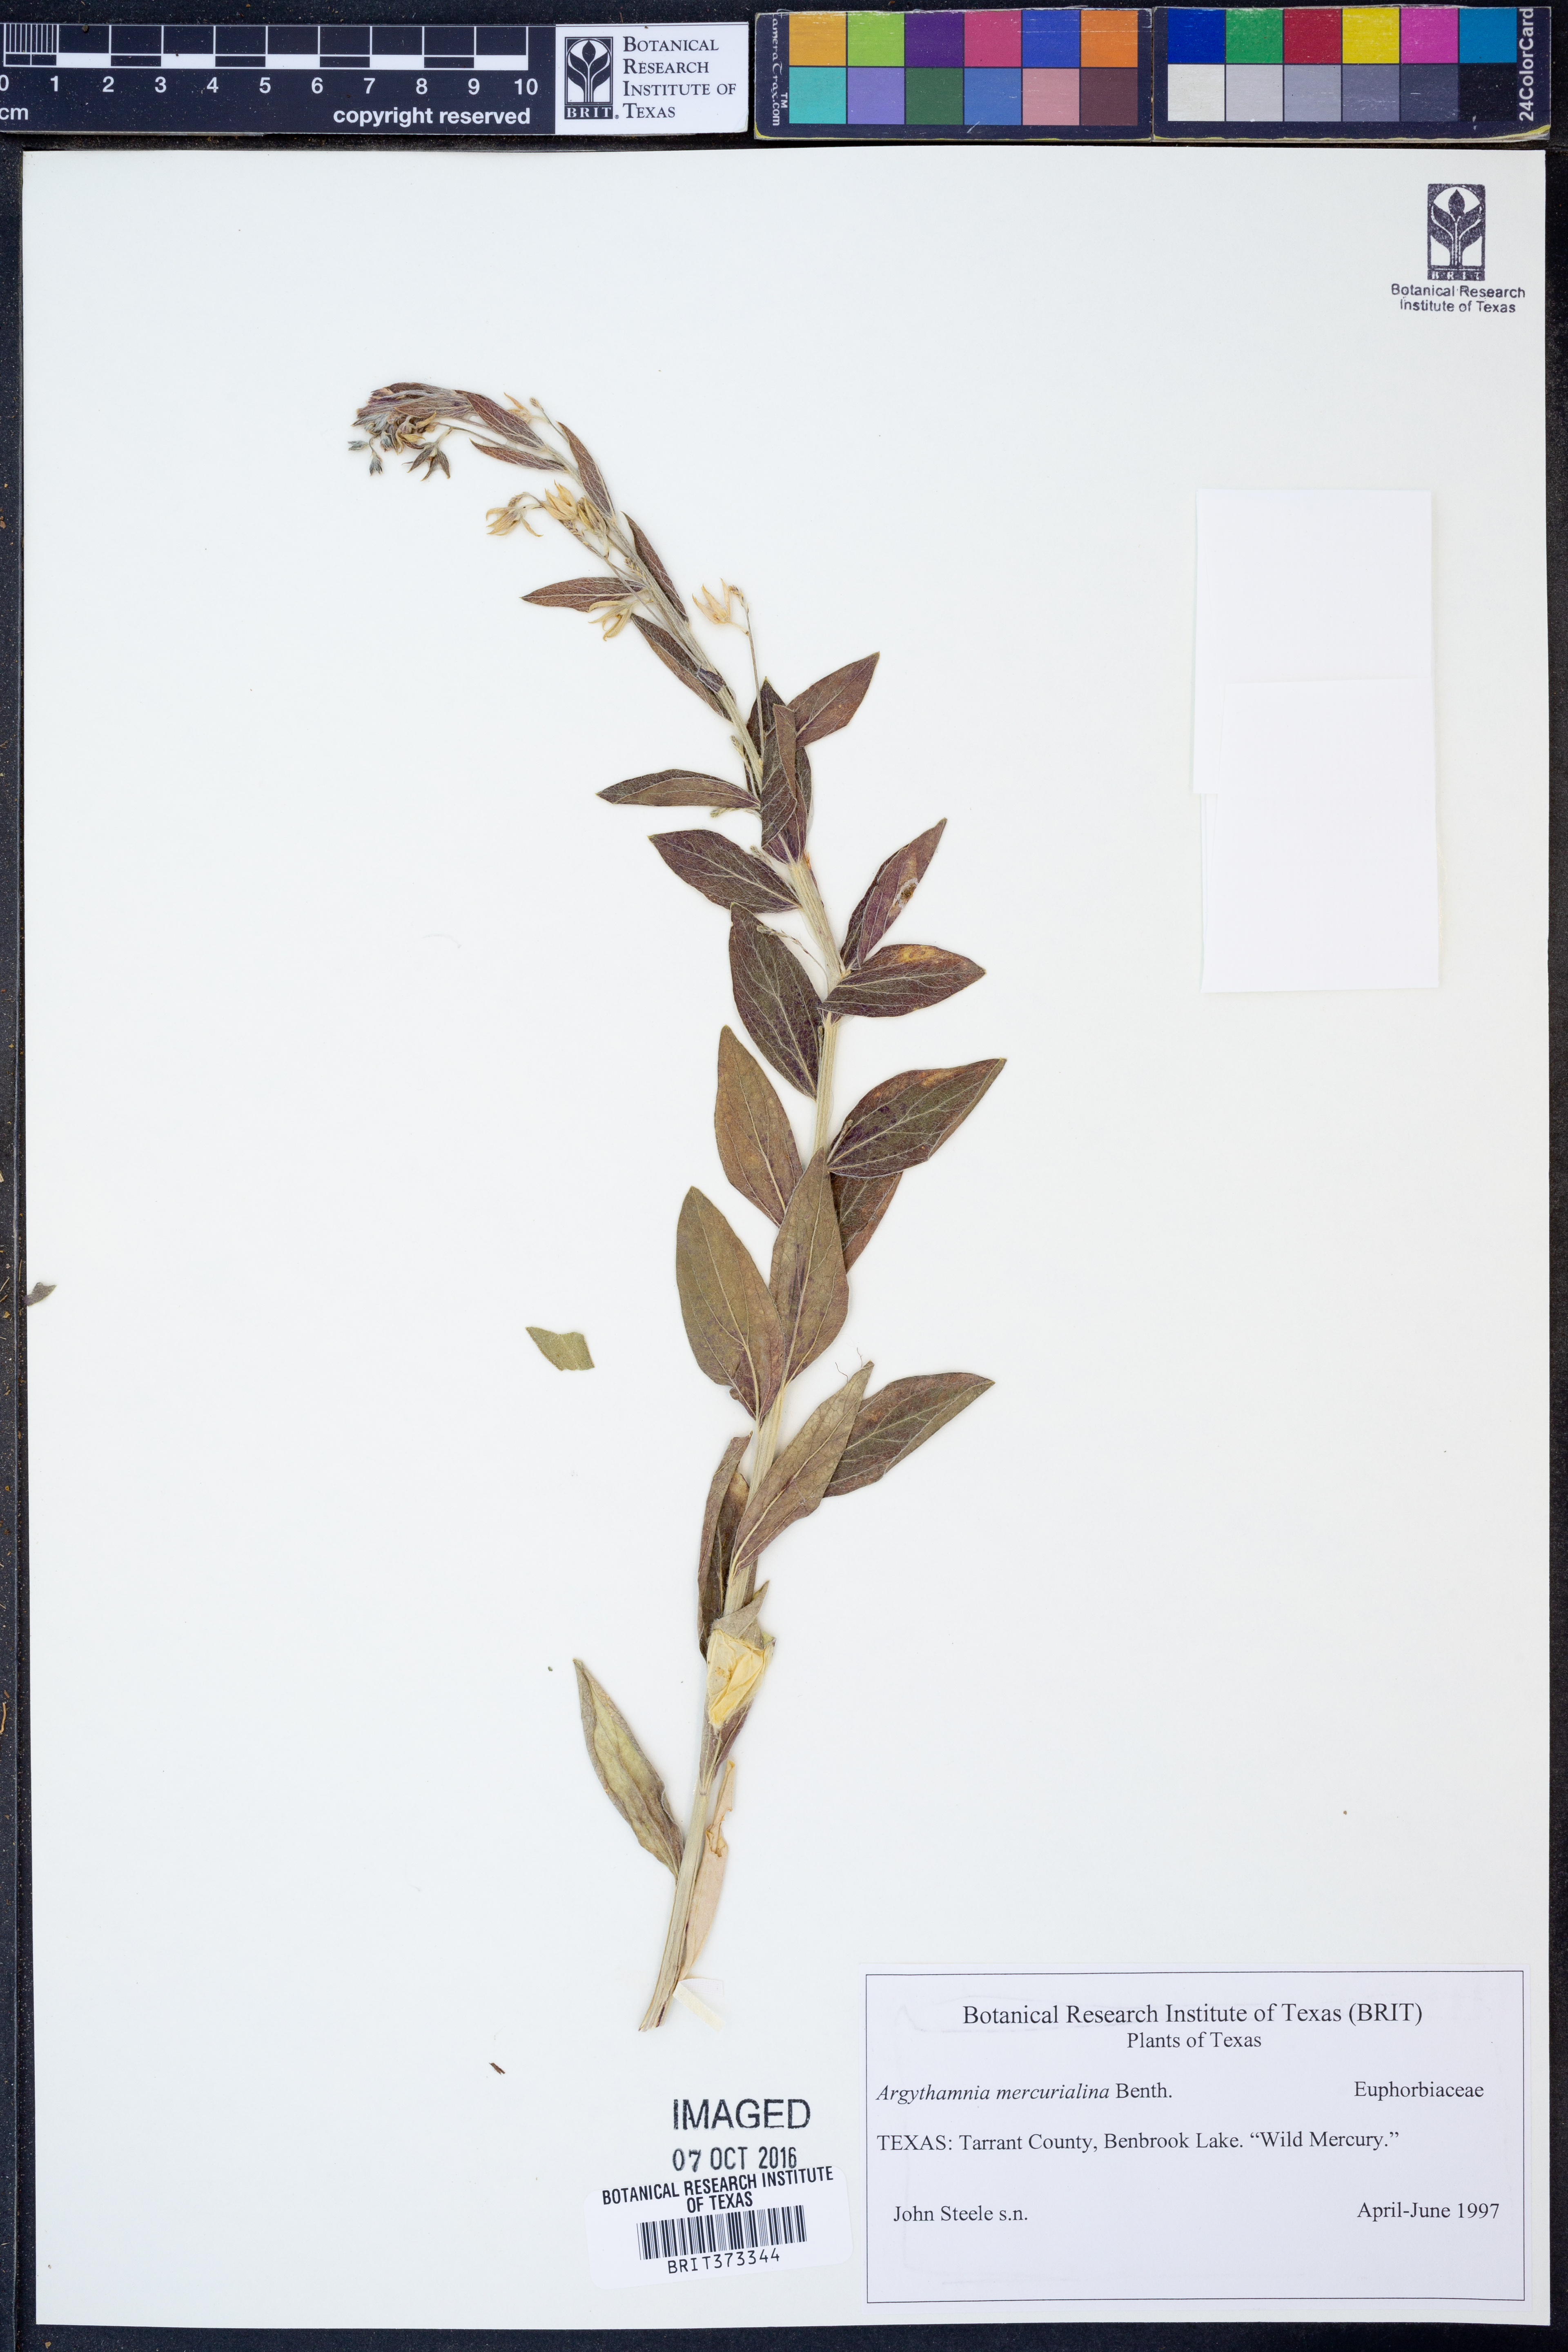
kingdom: Plantae
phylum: Tracheophyta
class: Magnoliopsida
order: Malpighiales
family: Euphorbiaceae
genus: Ditaxis
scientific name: Ditaxis mercurialina
